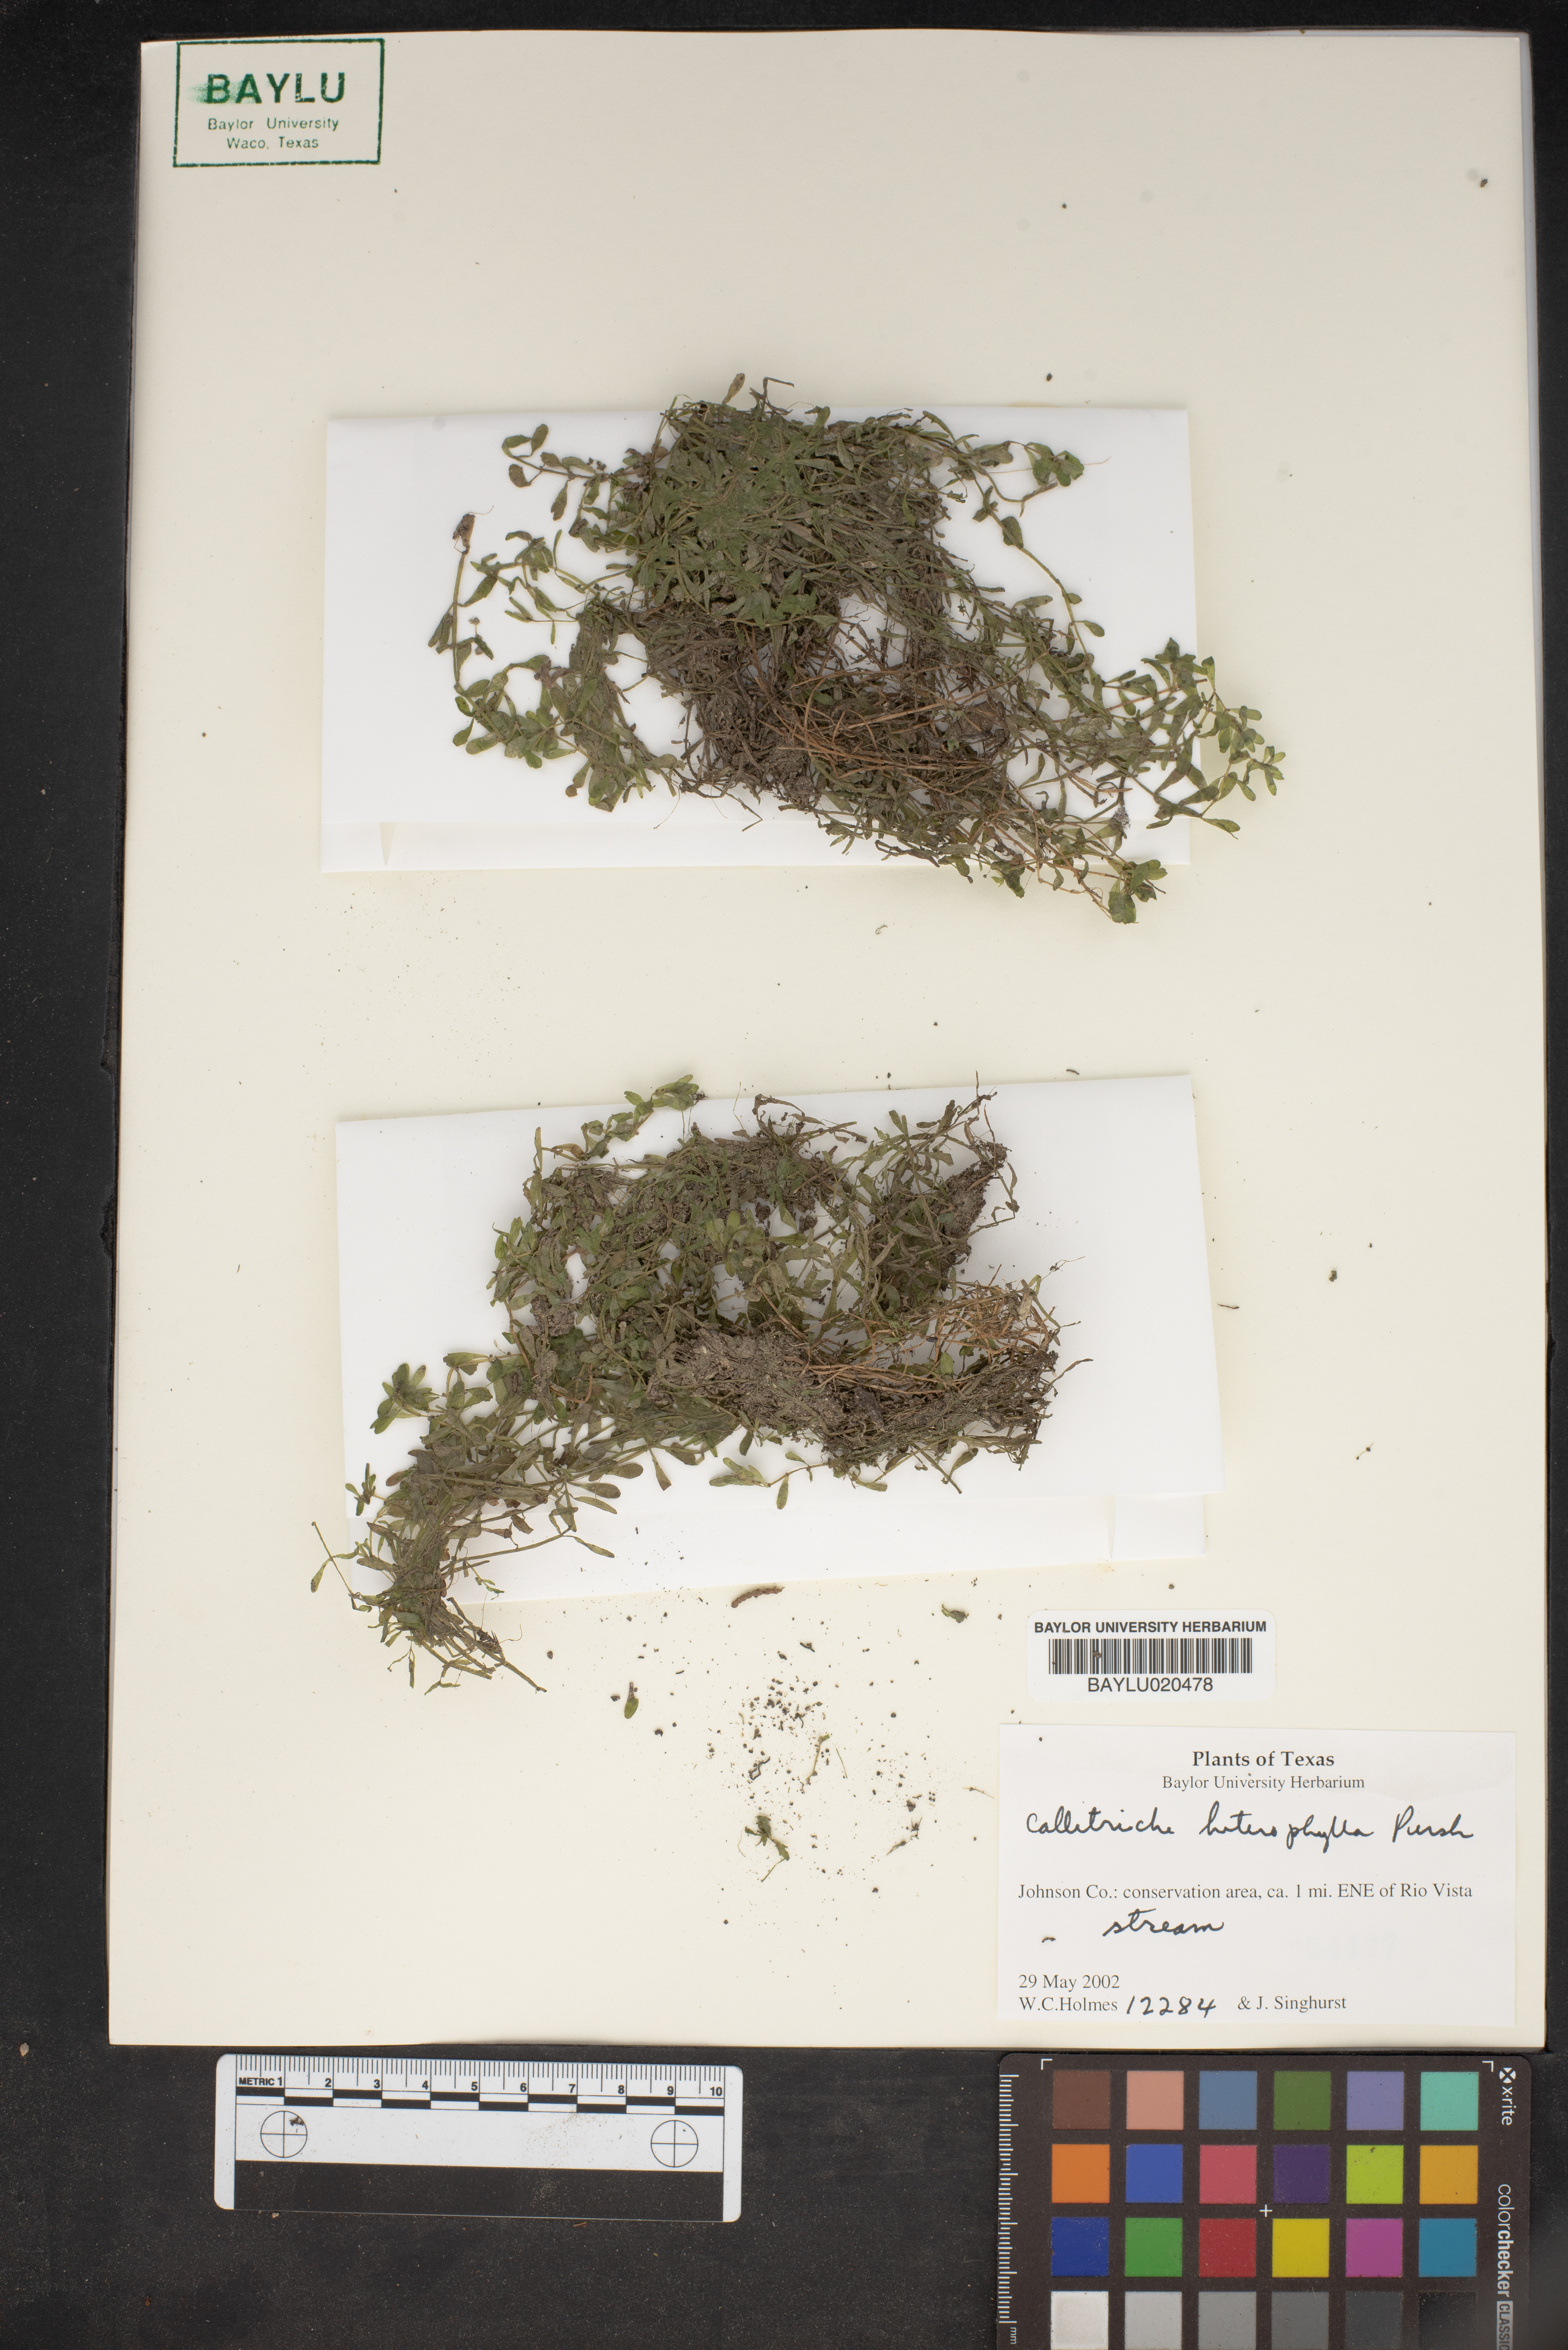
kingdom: Plantae
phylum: Tracheophyta
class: Magnoliopsida
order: Lamiales
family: Plantaginaceae
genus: Callitriche
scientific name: Callitriche heterophylla
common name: Two-headed water-starwort
